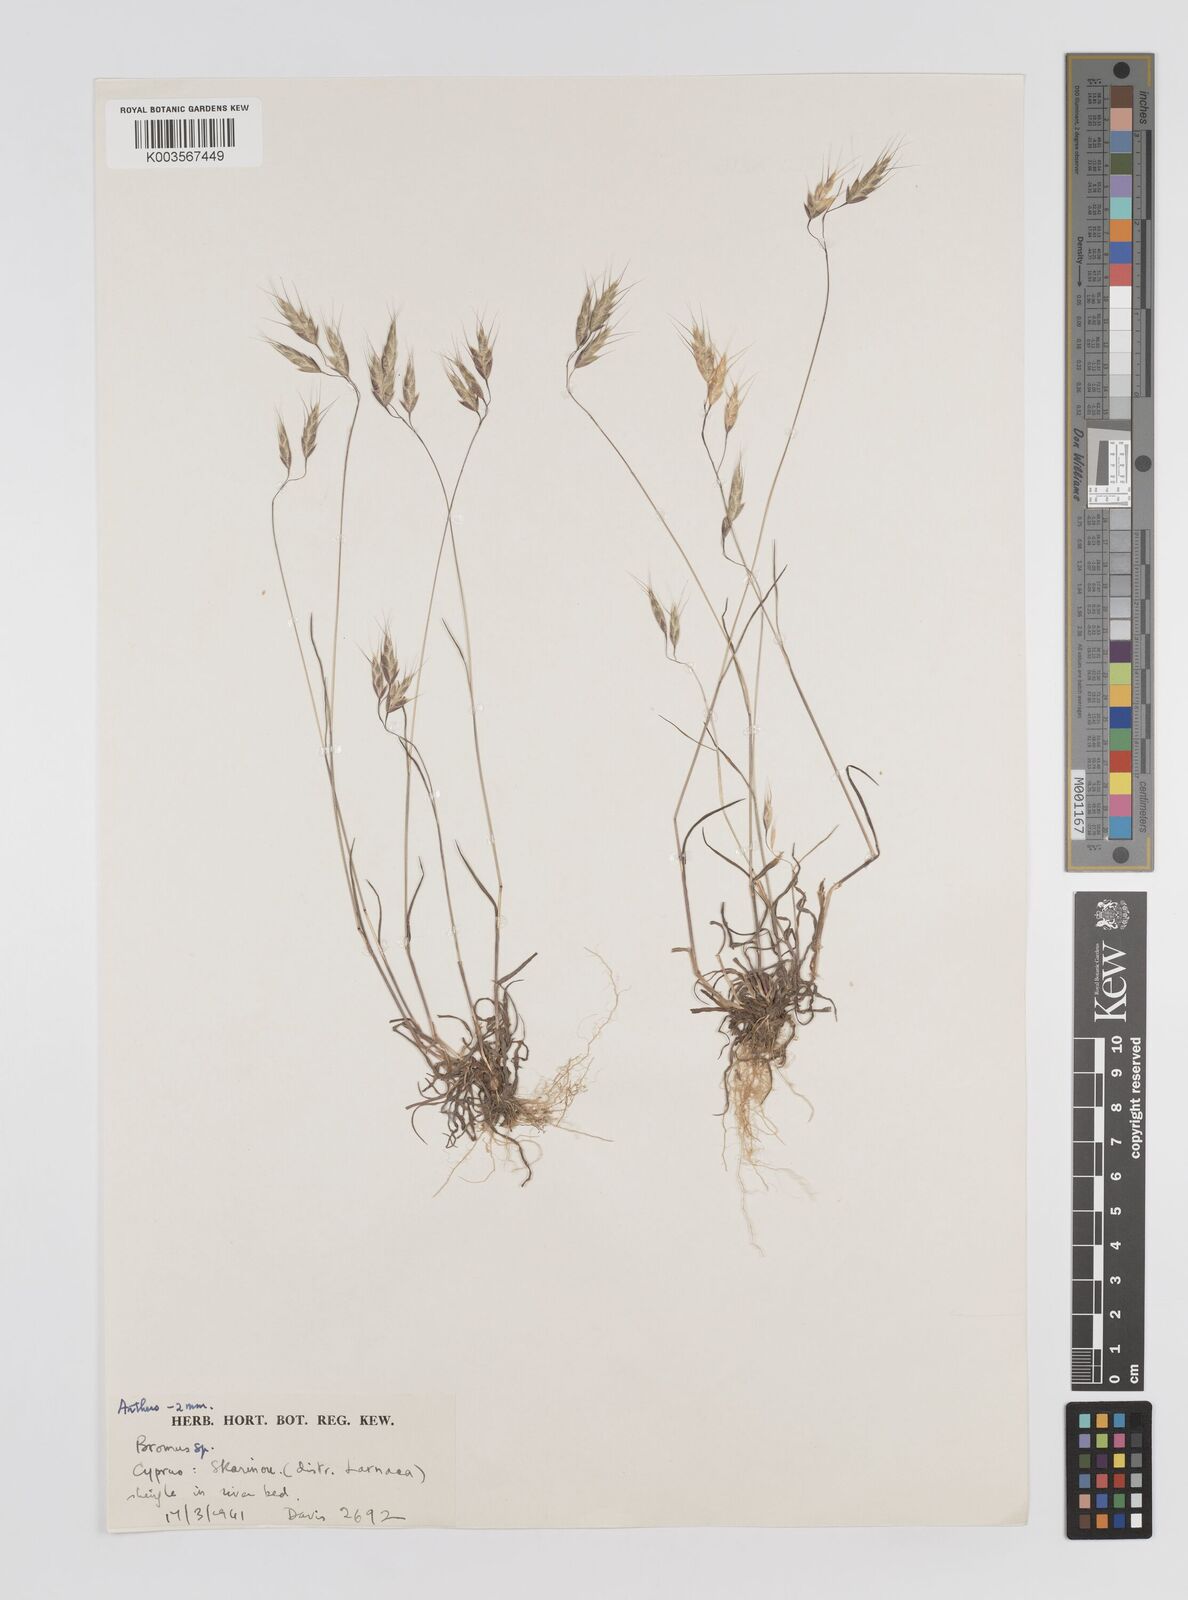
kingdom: Plantae
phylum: Tracheophyta
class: Liliopsida
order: Poales
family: Poaceae
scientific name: Poaceae
